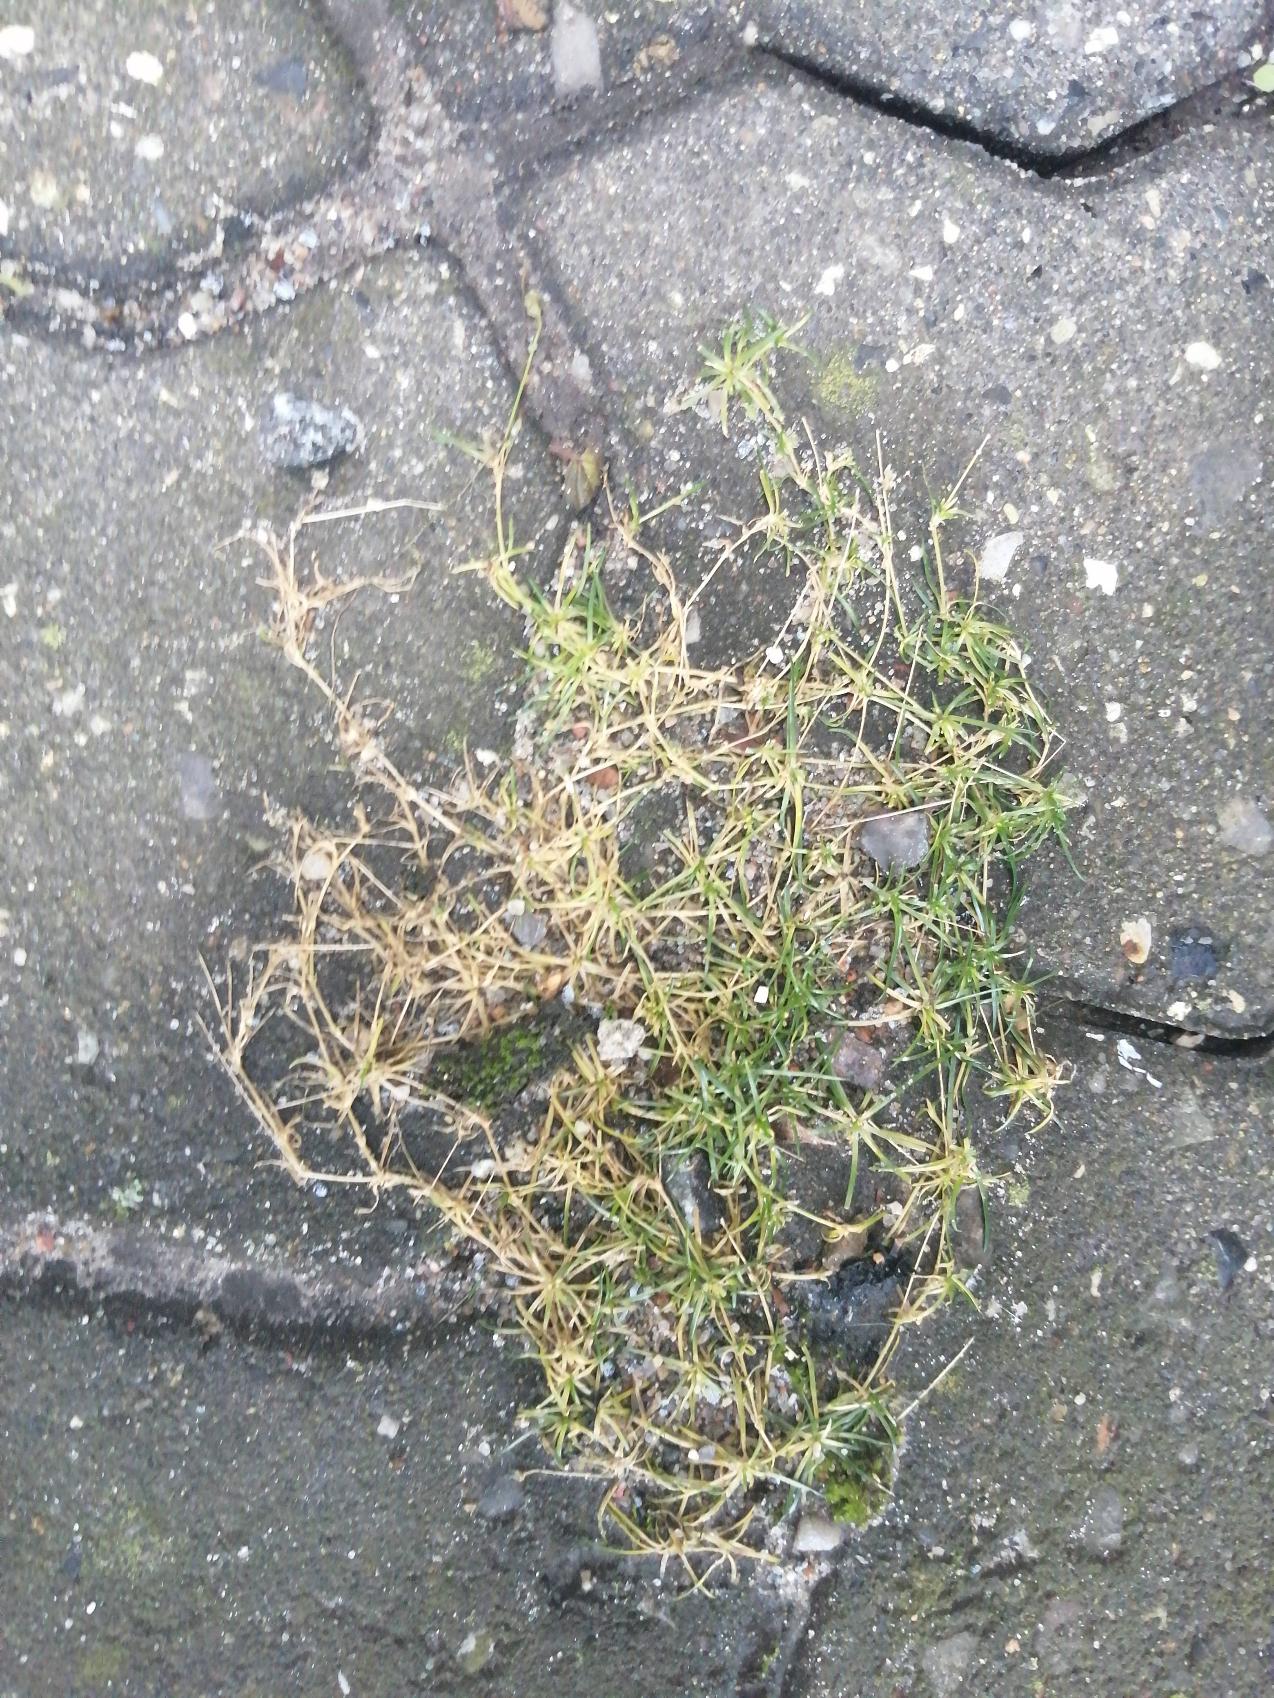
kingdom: Plantae
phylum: Tracheophyta
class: Magnoliopsida
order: Caryophyllales
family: Caryophyllaceae
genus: Sagina
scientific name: Sagina procumbens
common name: Almindelig firling
